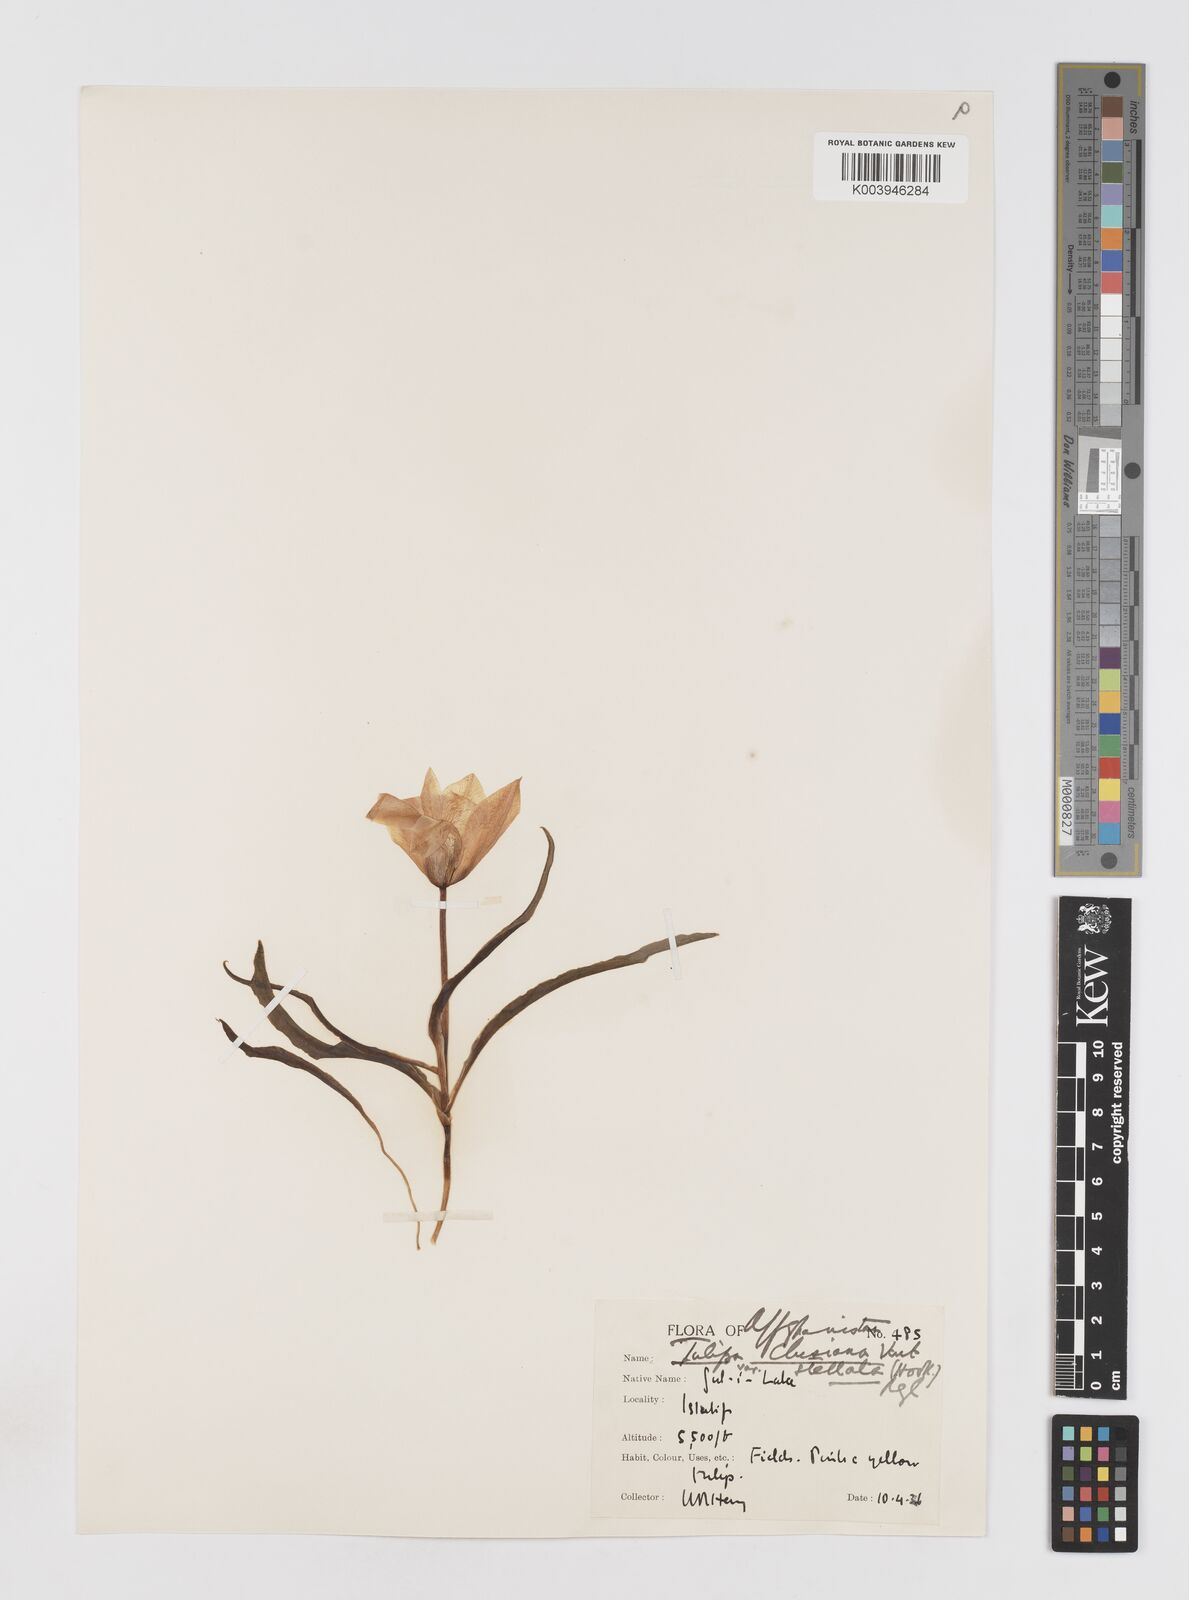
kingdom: Plantae
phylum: Tracheophyta
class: Liliopsida
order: Liliales
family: Liliaceae
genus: Tulipa
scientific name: Tulipa clusiana
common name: Lady tulip
